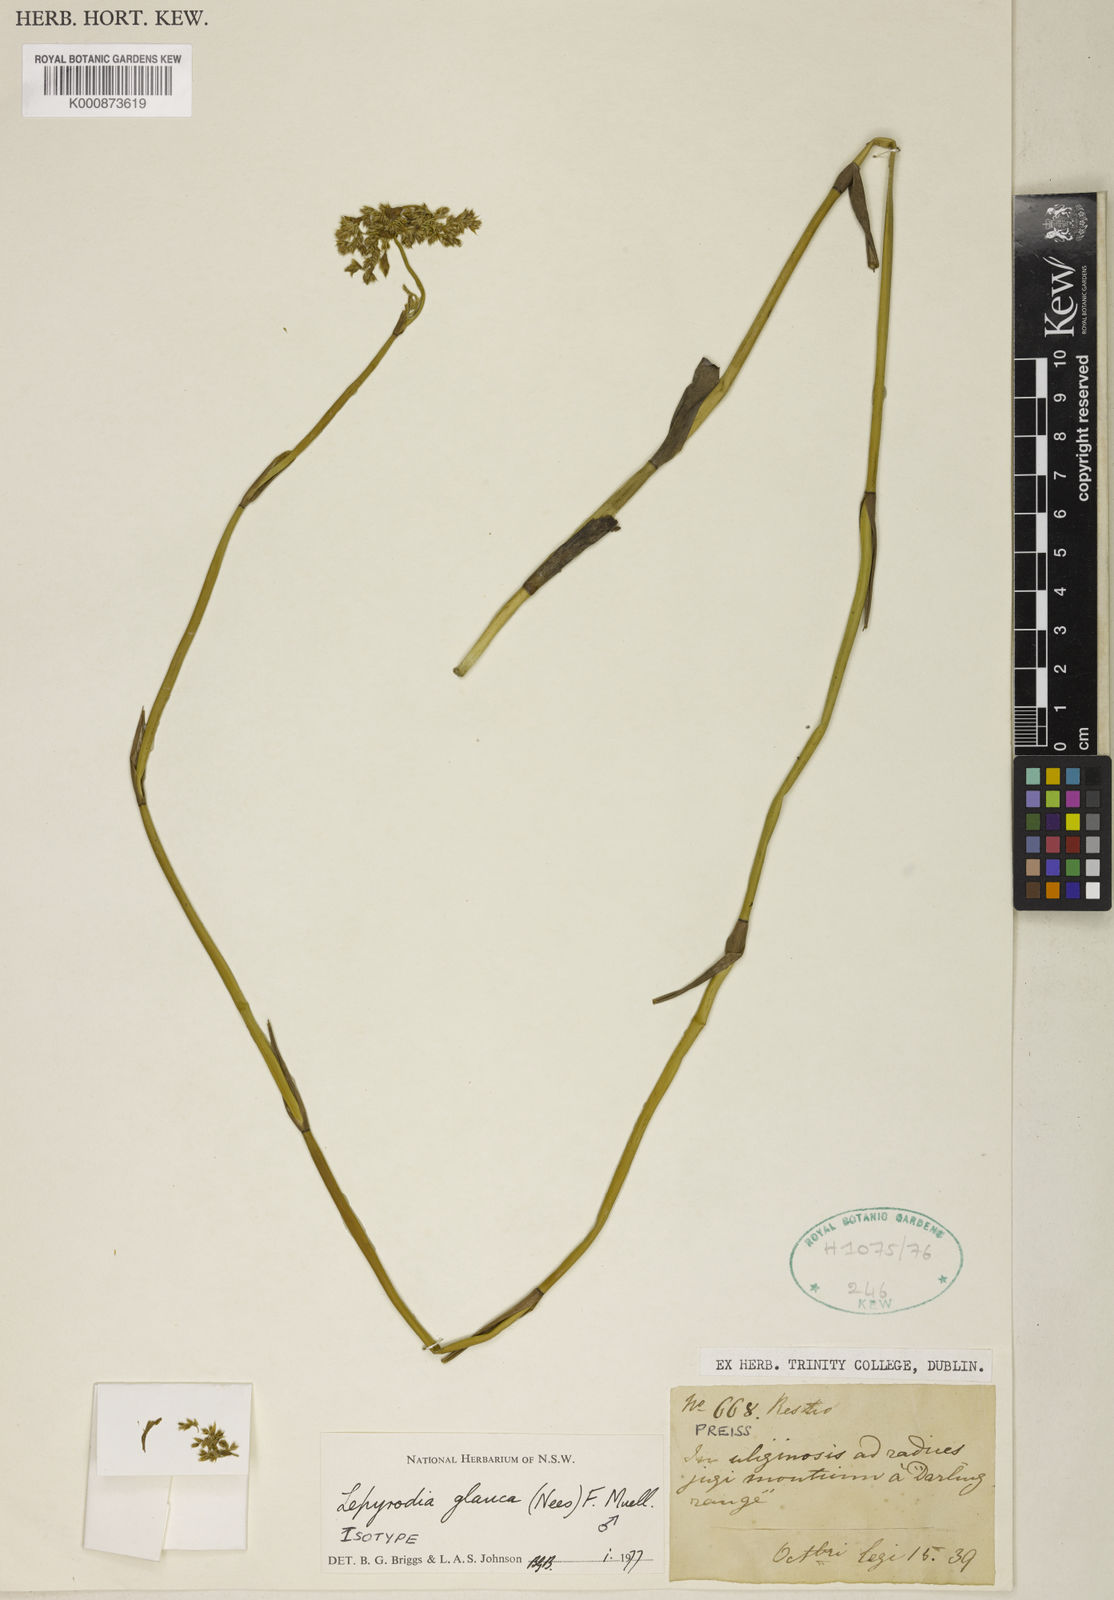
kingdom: Plantae
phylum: Tracheophyta
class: Liliopsida
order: Poales
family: Restionaceae
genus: Lepyrodia
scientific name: Lepyrodia glauca
